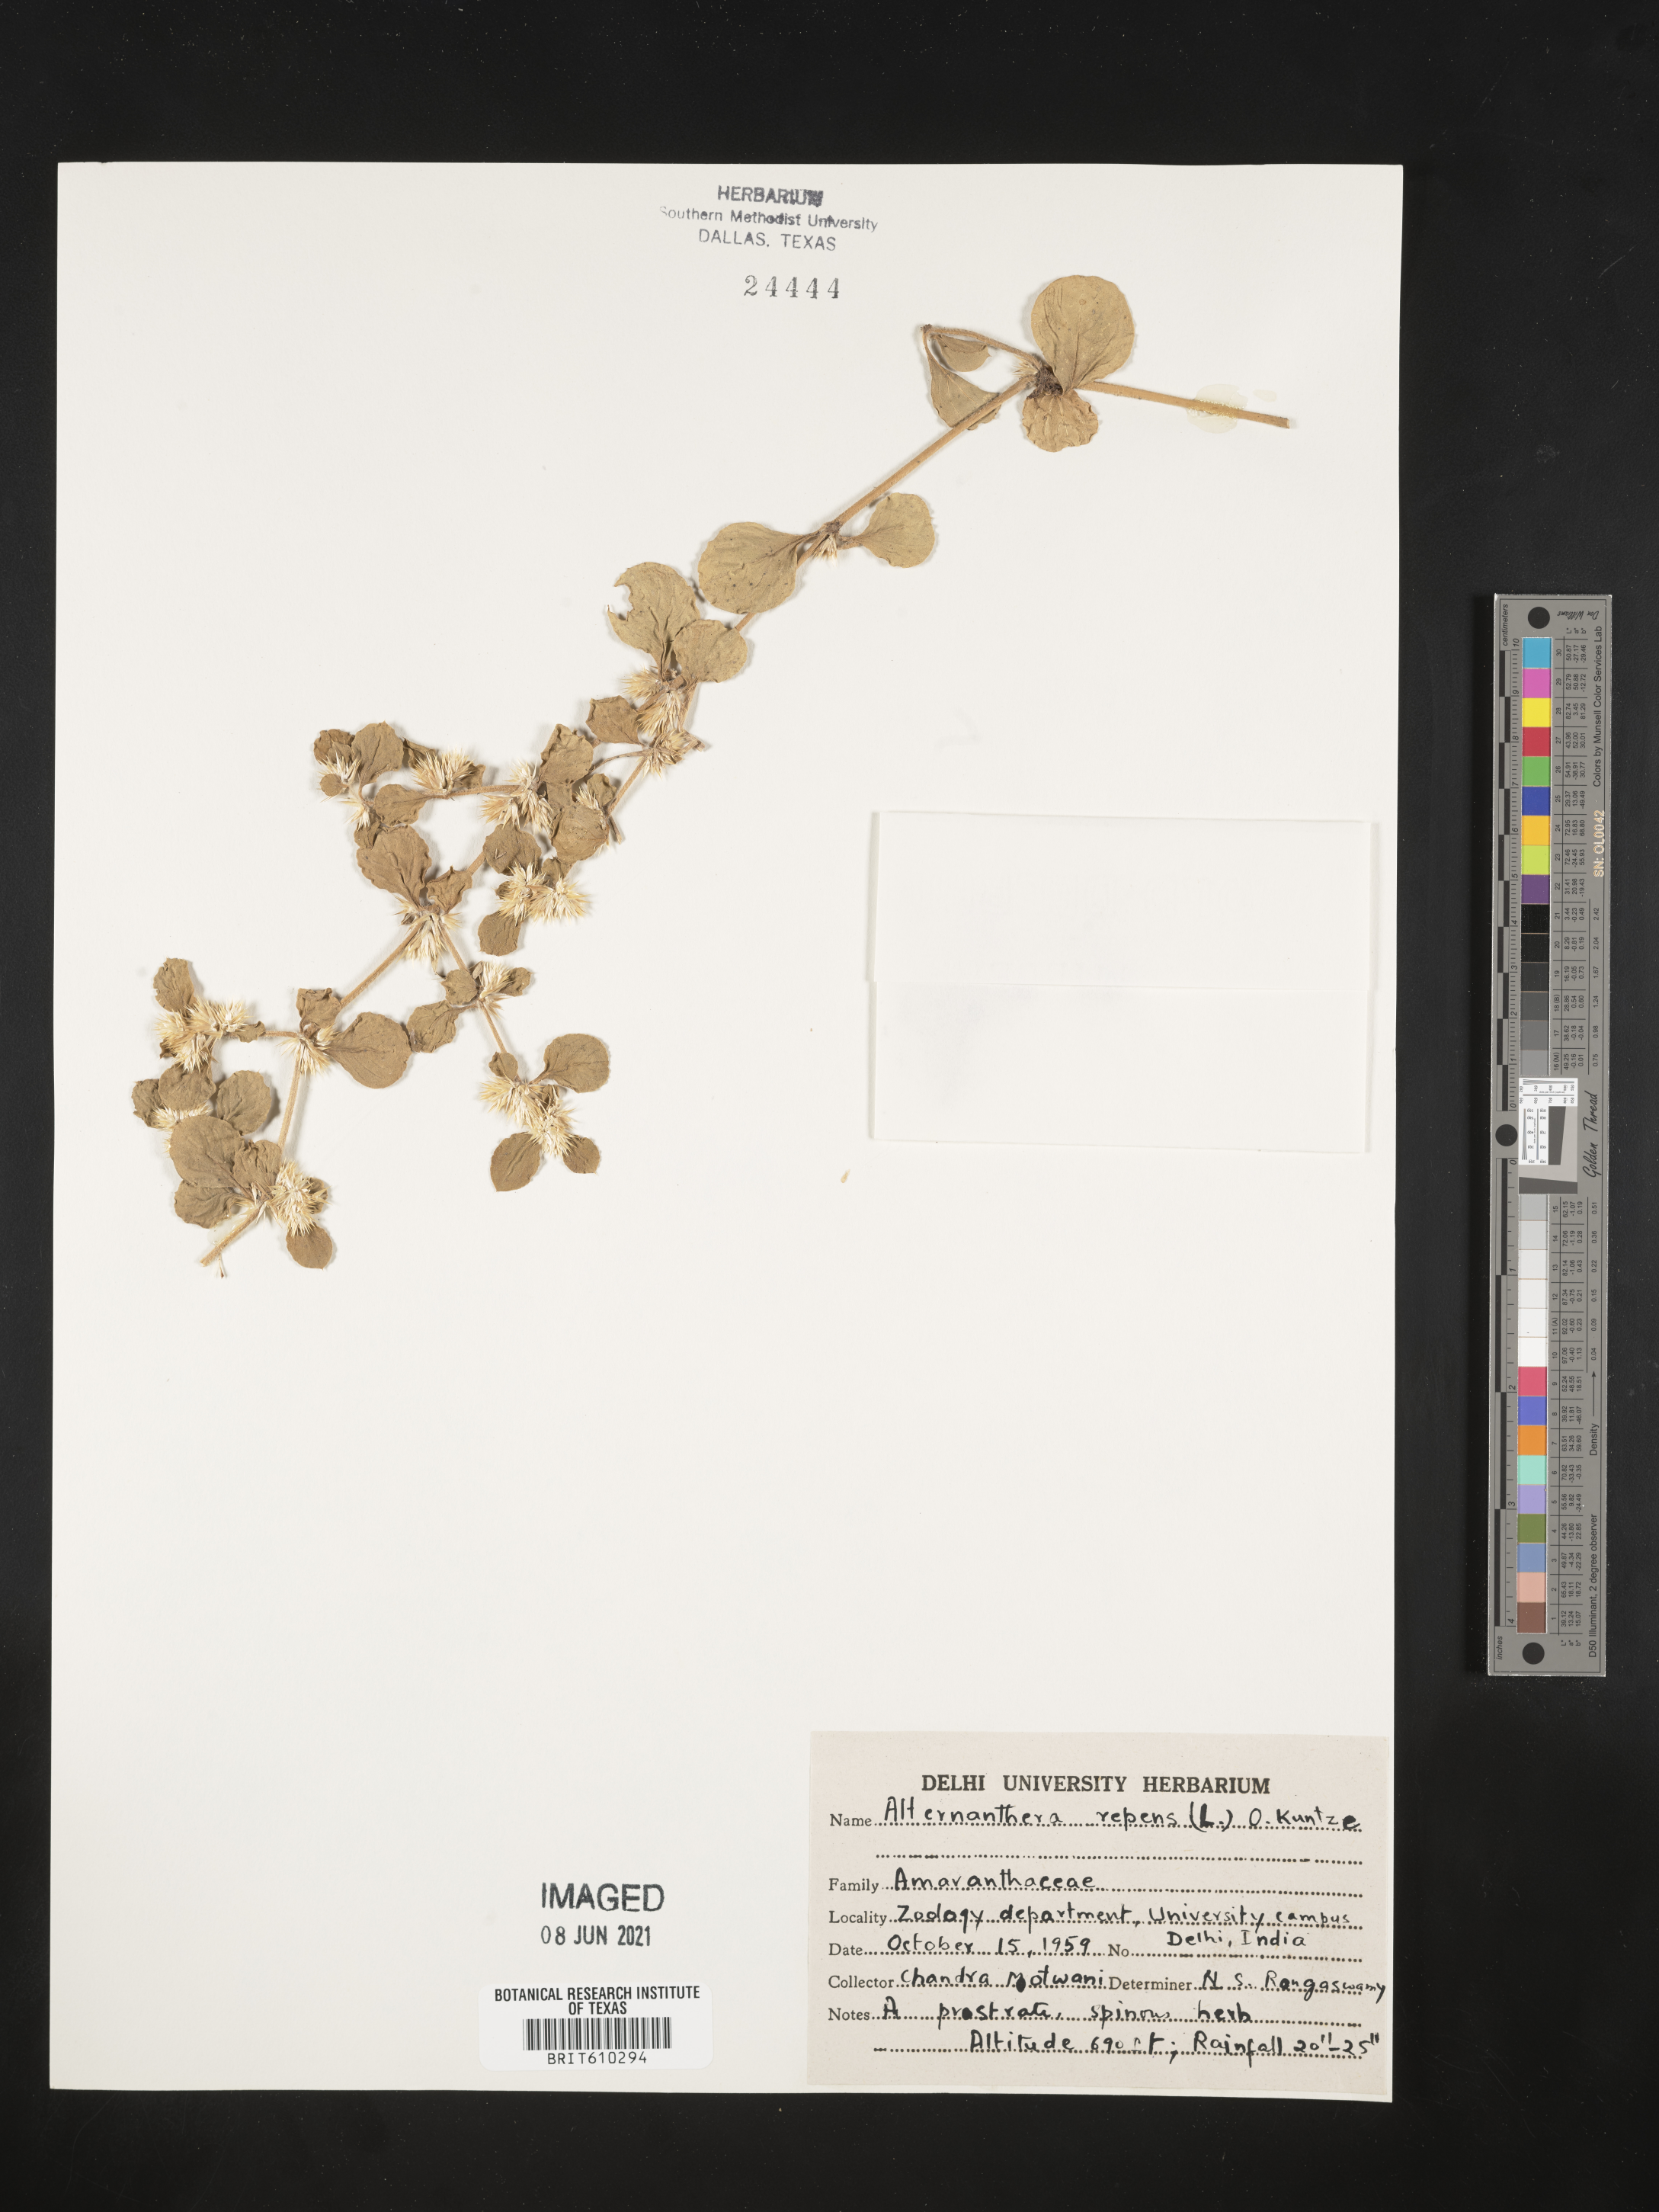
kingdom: Plantae
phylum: Tracheophyta
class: Magnoliopsida
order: Caryophyllales
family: Amaranthaceae
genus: Alternanthera
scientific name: Alternanthera pungens
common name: Khakiweed
